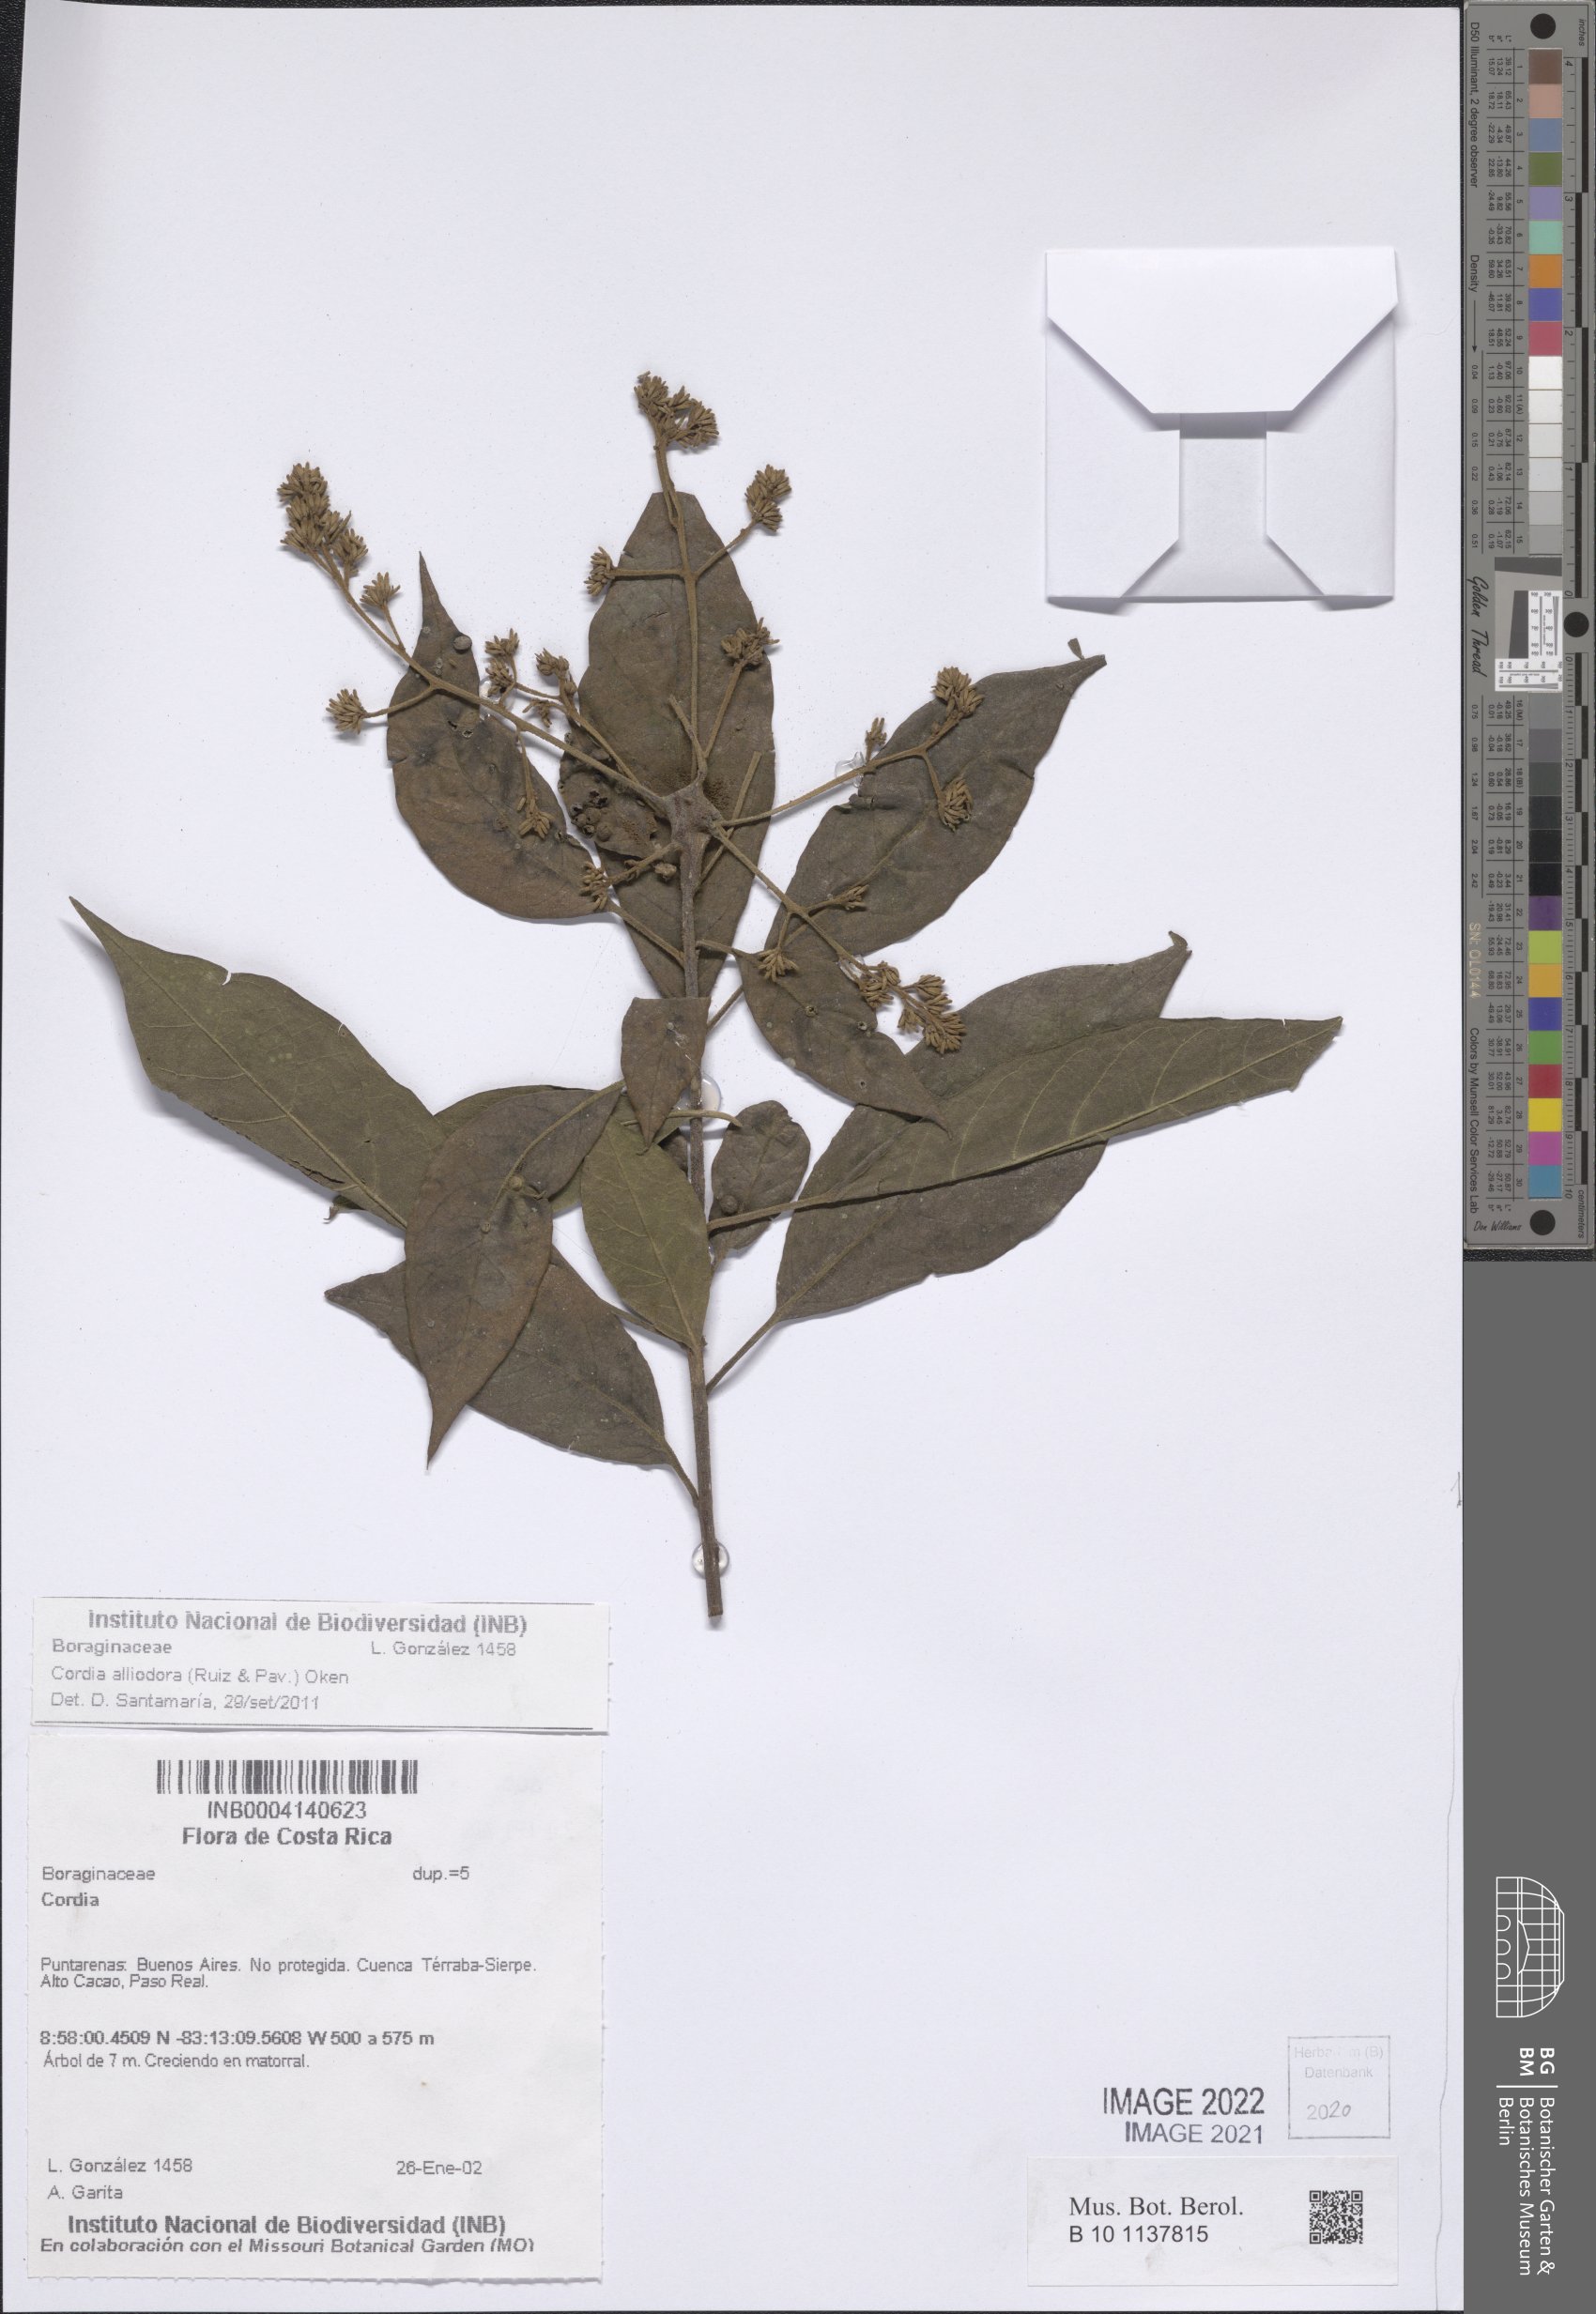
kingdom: Plantae
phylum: Tracheophyta
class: Magnoliopsida
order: Boraginales
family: Cordiaceae
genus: Cordia
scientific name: Cordia alliodora
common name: Spanish elm
